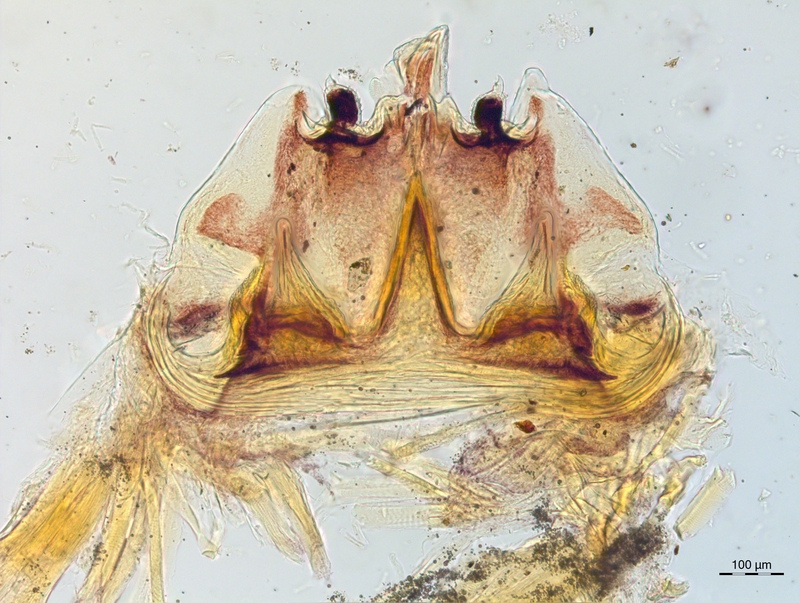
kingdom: Animalia
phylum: Arthropoda
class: Diplopoda
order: Chordeumatida
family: Craspedosomatidae
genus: Craspedosoma
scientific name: Craspedosoma transsilvanicum
